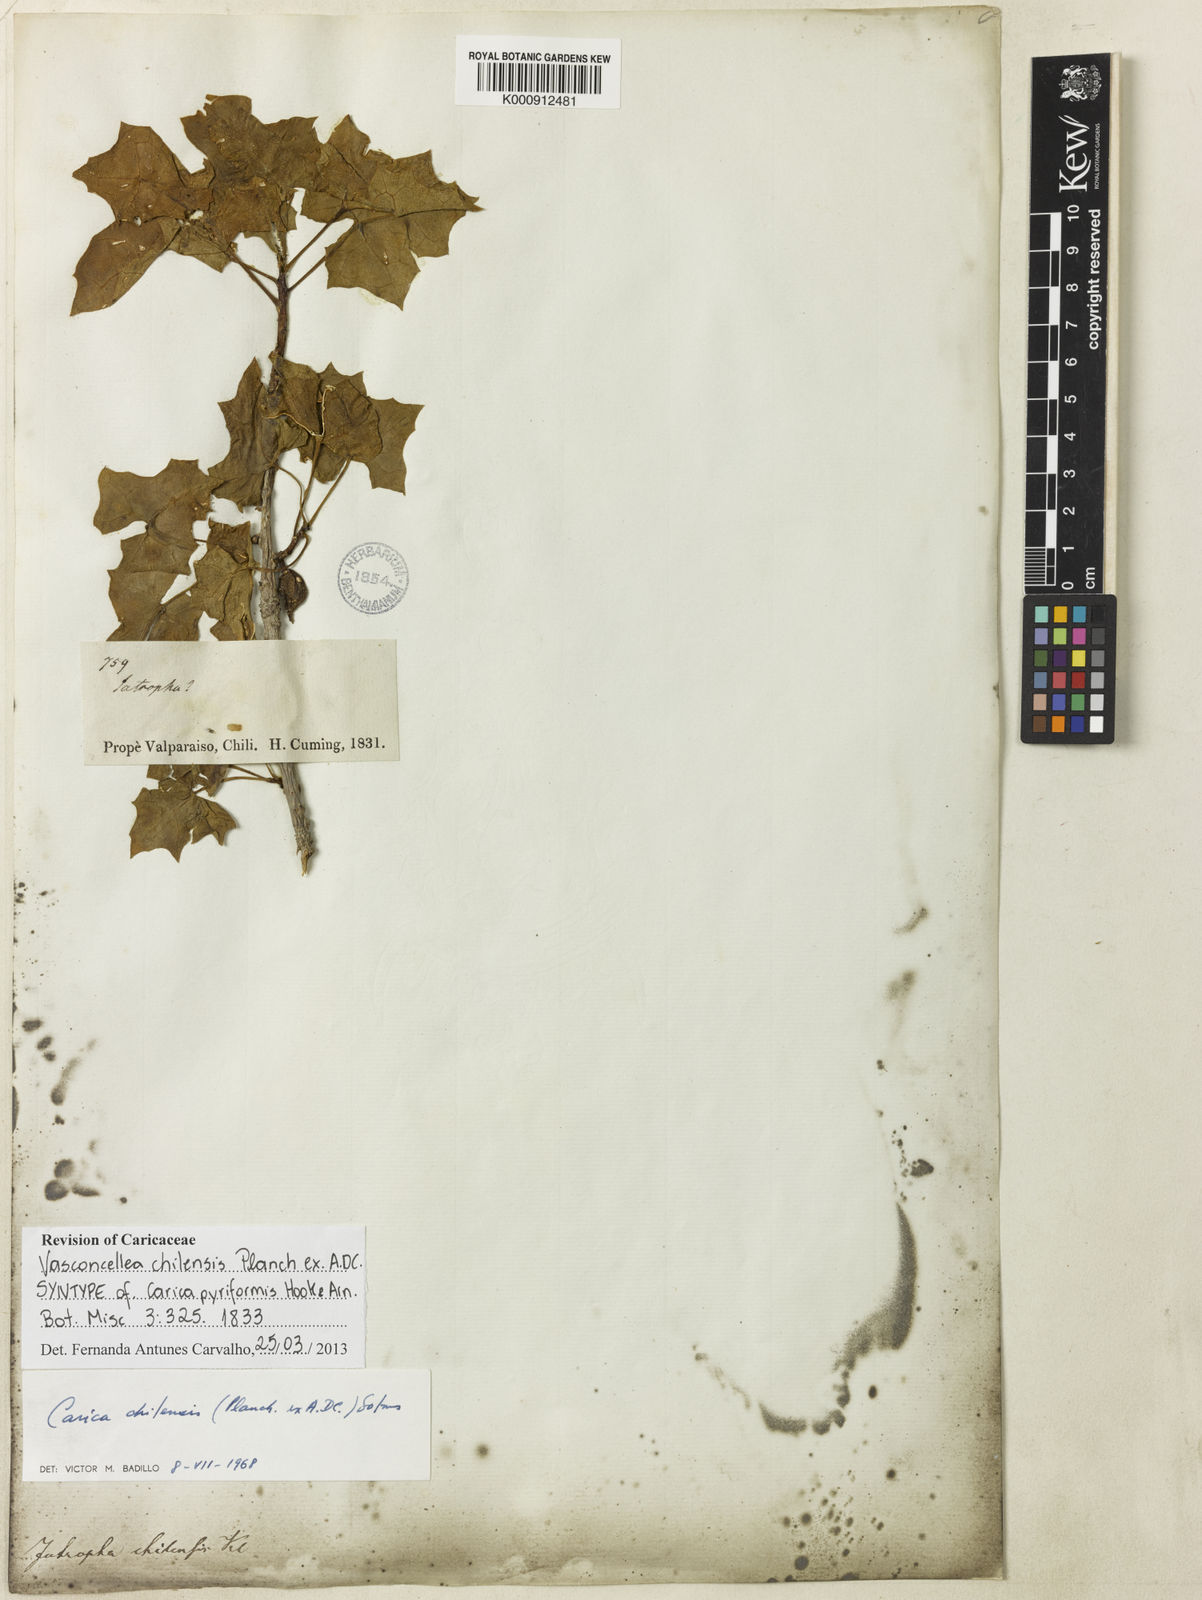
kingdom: Plantae
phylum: Tracheophyta
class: Magnoliopsida
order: Brassicales
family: Caricaceae
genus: Vasconcellea
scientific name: Vasconcellea
